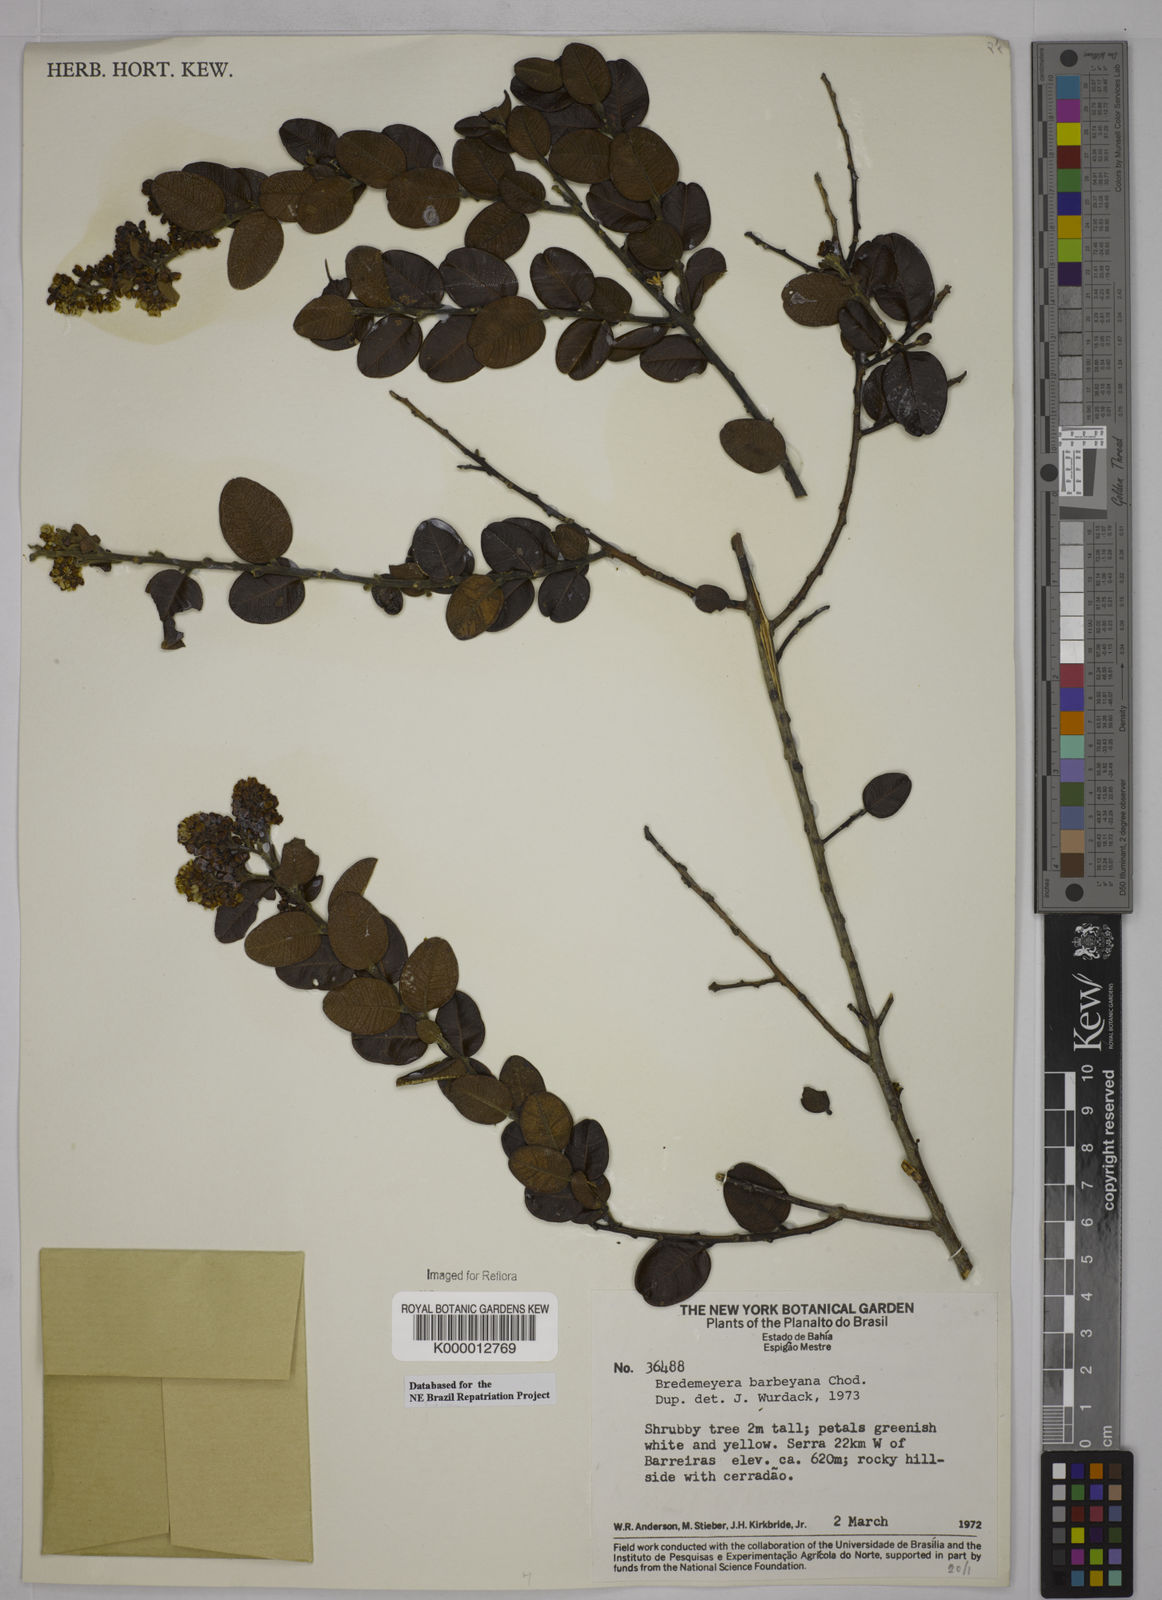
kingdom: Plantae
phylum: Tracheophyta
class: Magnoliopsida
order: Fabales
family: Polygalaceae
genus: Bredemeyera
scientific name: Bredemeyera barbeyana
